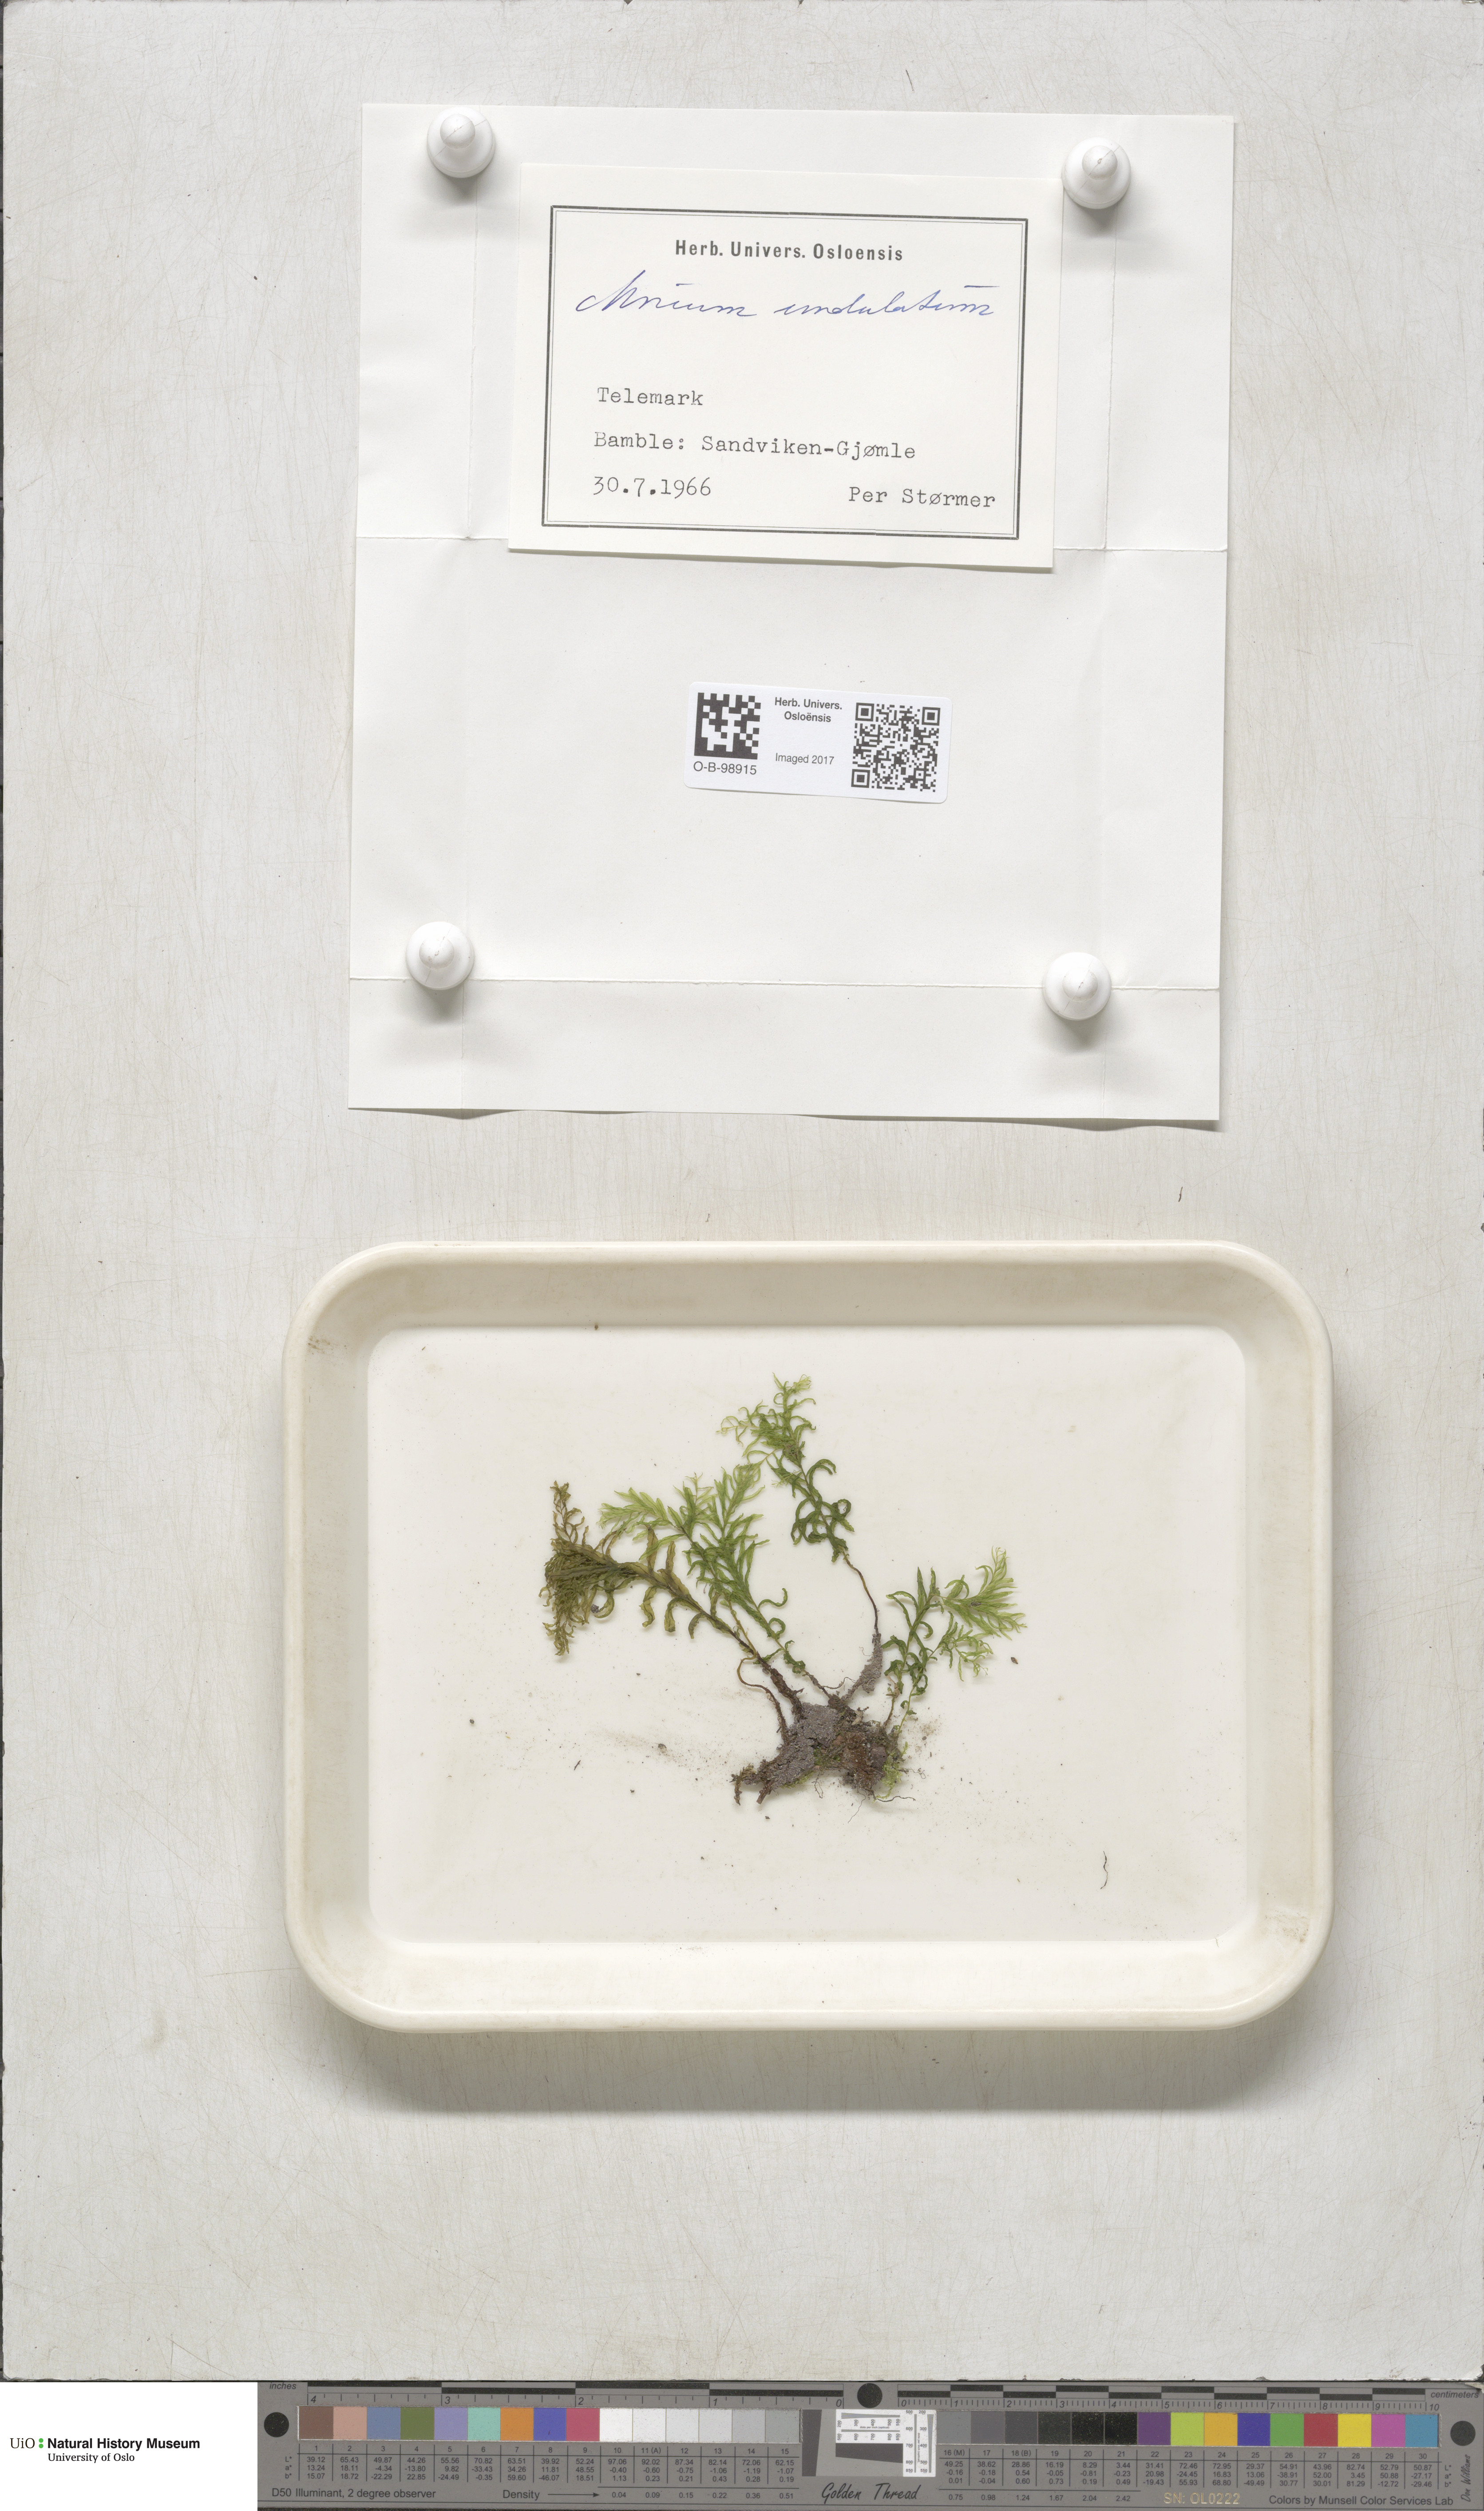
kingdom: Plantae
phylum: Bryophyta
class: Bryopsida
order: Bryales
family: Mniaceae
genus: Plagiomnium
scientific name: Plagiomnium undulatum
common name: Hart's-tongue thyme-moss
